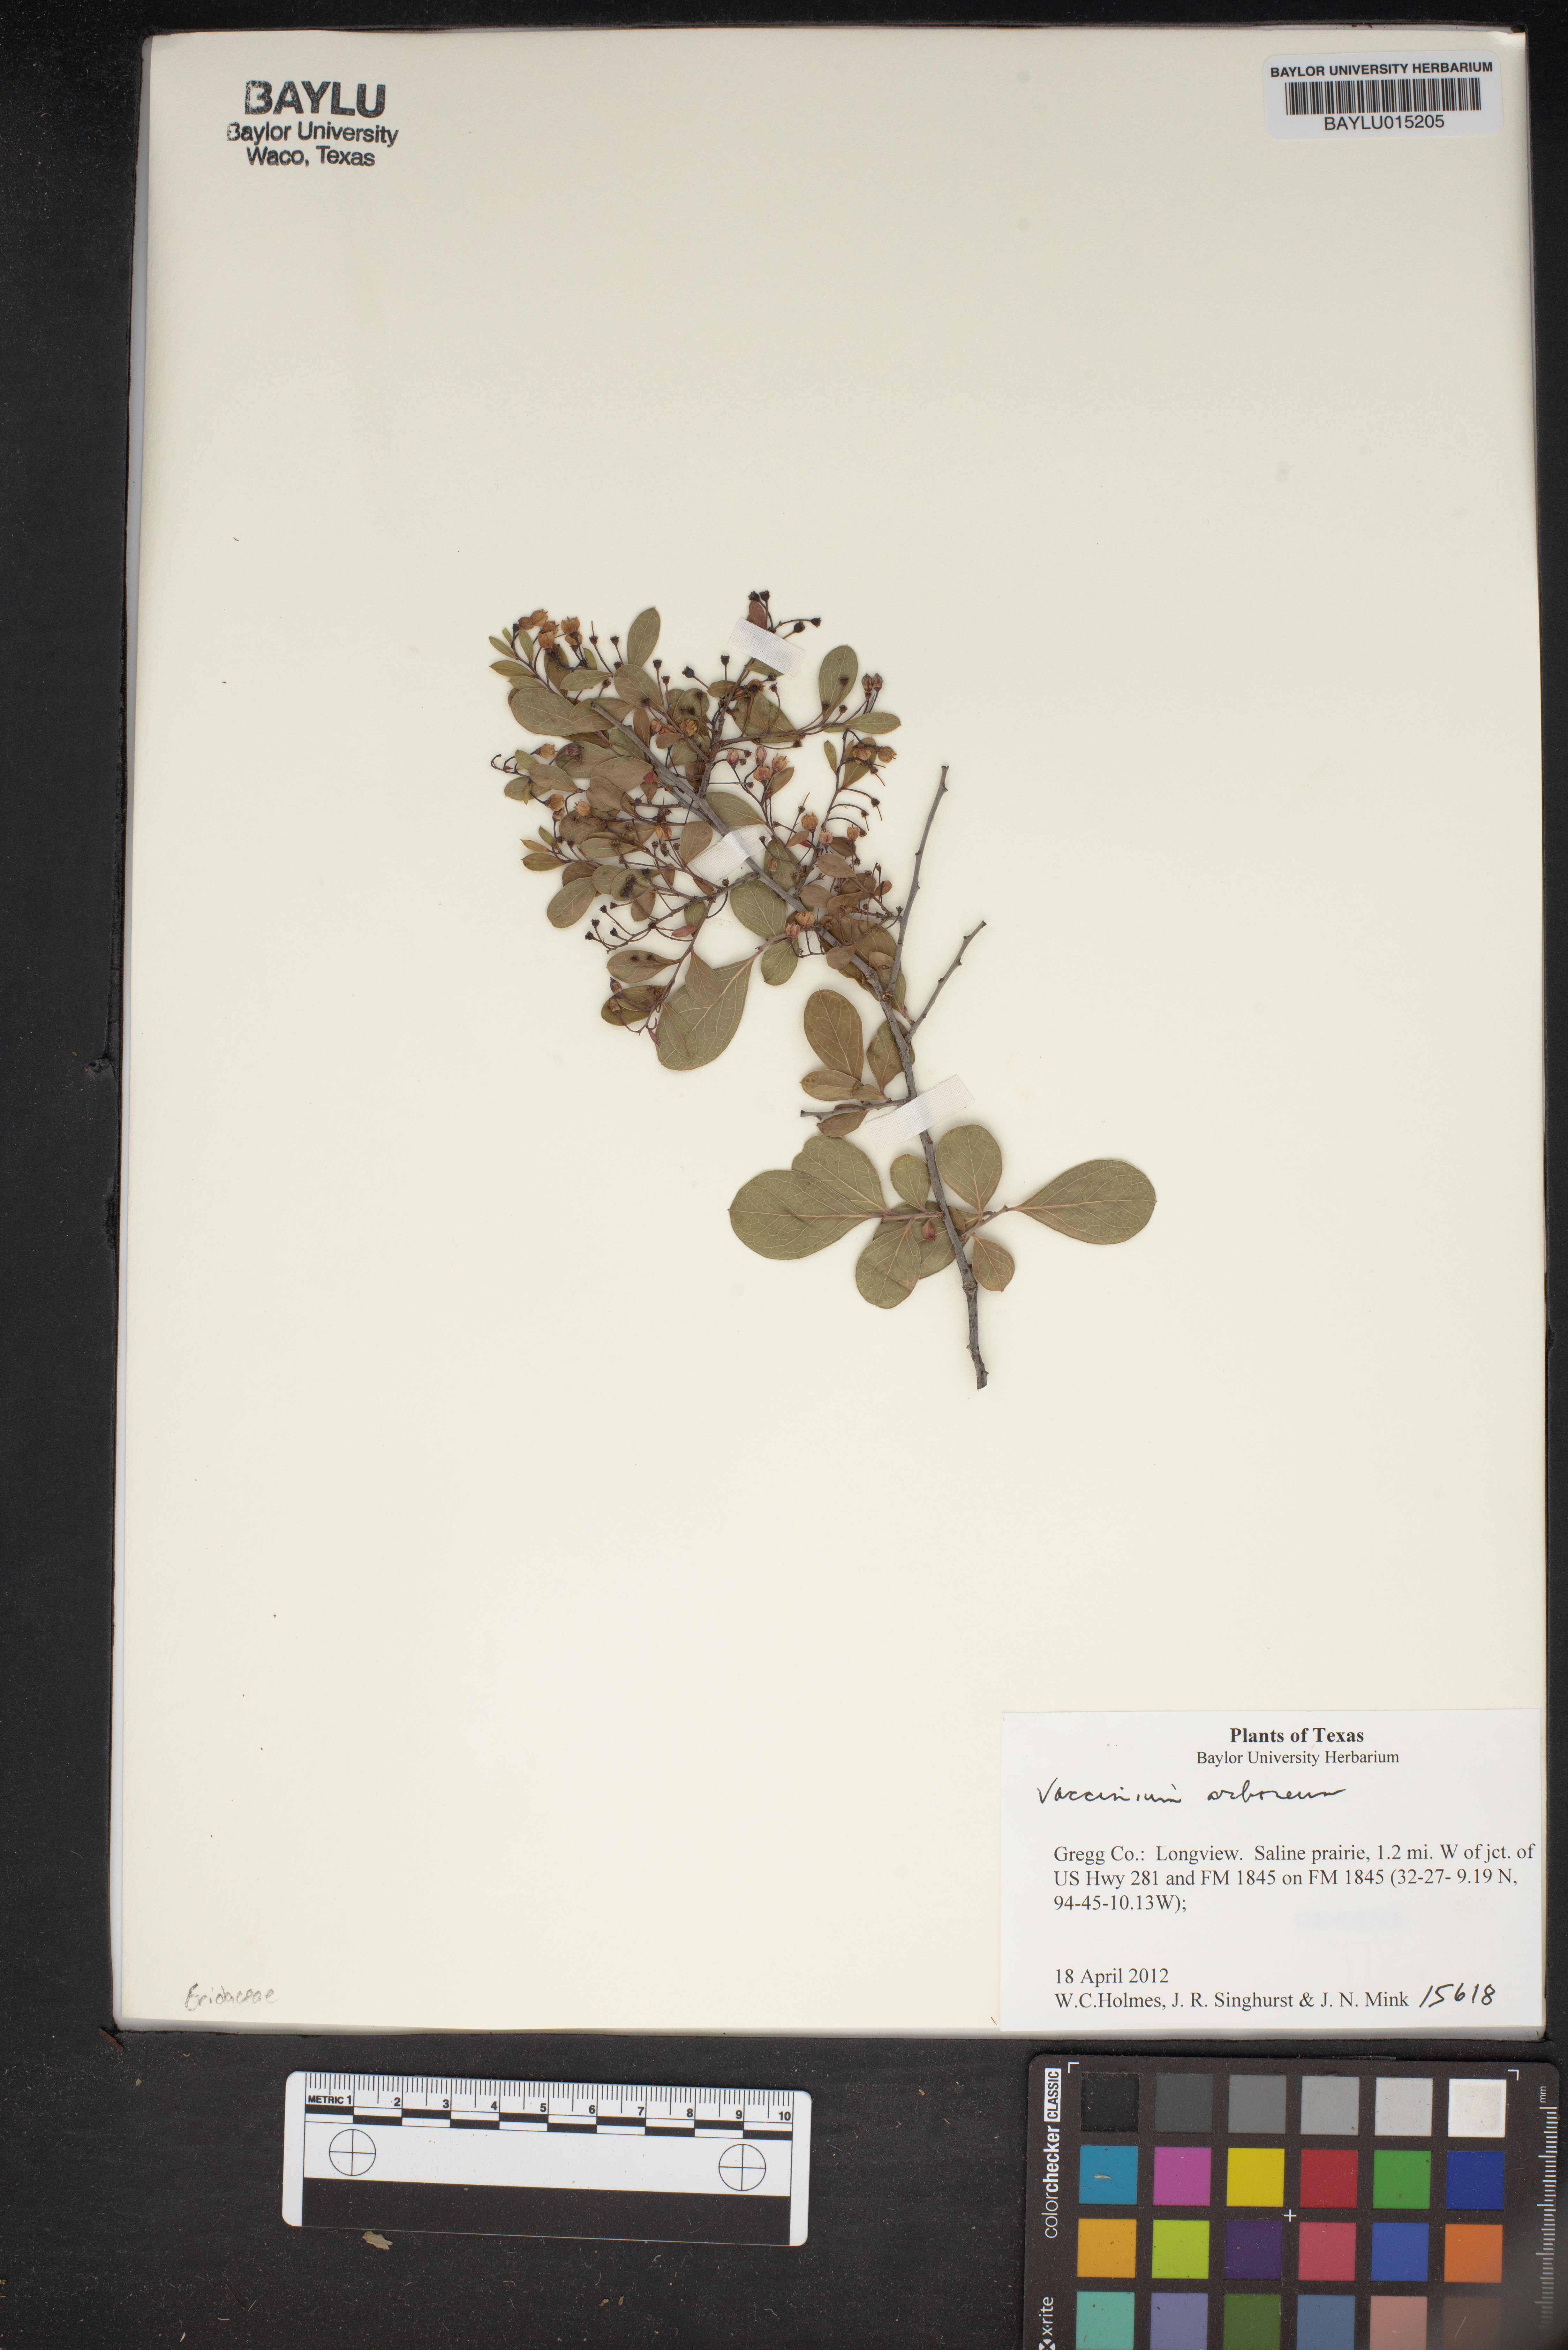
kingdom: Plantae
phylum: Tracheophyta
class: Magnoliopsida
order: Ericales
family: Ericaceae
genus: Vaccinium
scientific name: Vaccinium arboreum
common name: Farkleberry
